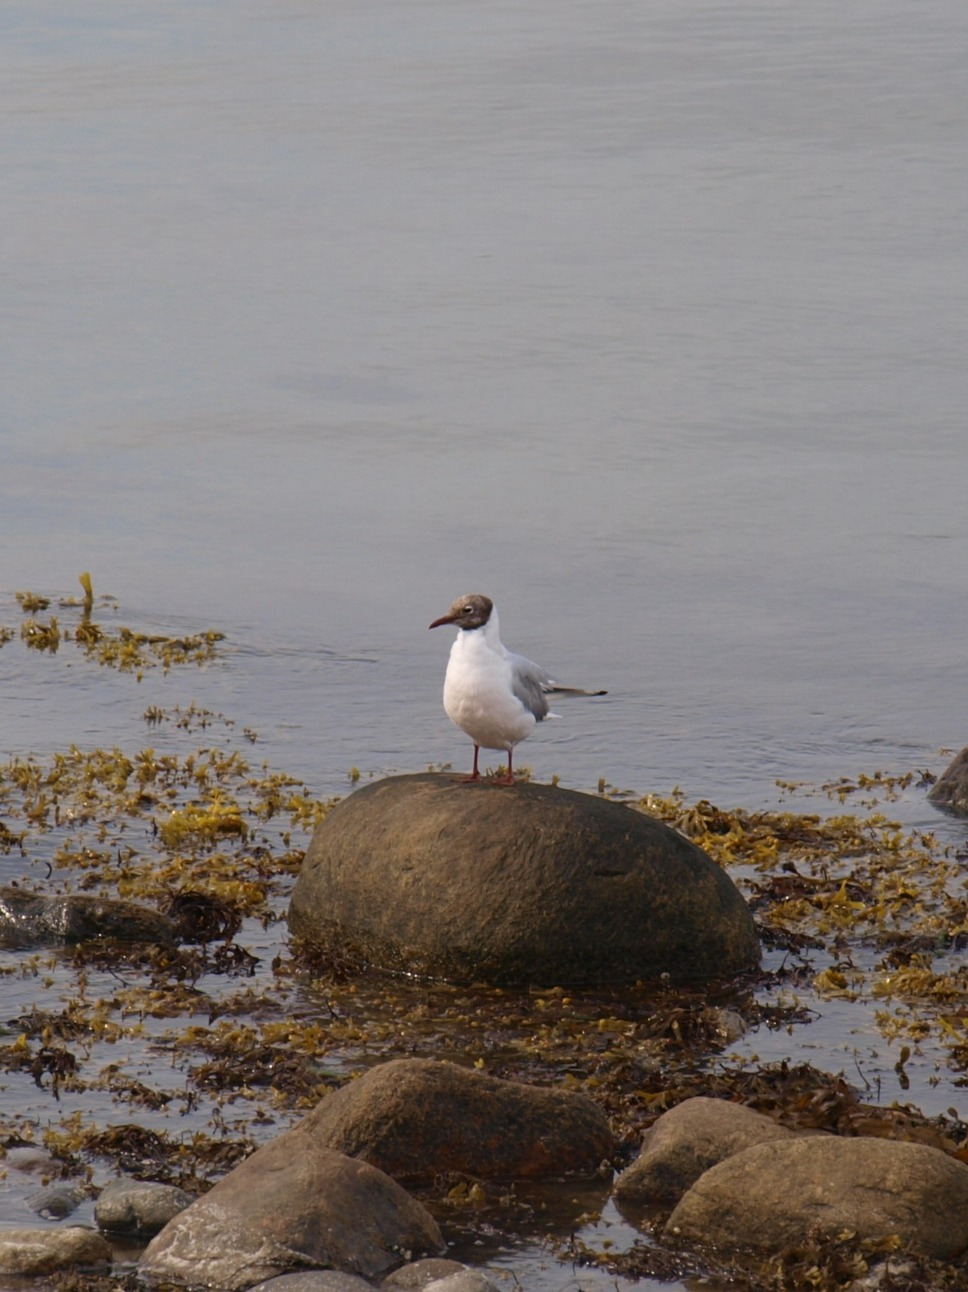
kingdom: Animalia
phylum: Chordata
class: Aves
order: Charadriiformes
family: Laridae
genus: Chroicocephalus
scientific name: Chroicocephalus ridibundus
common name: Hættemåge
